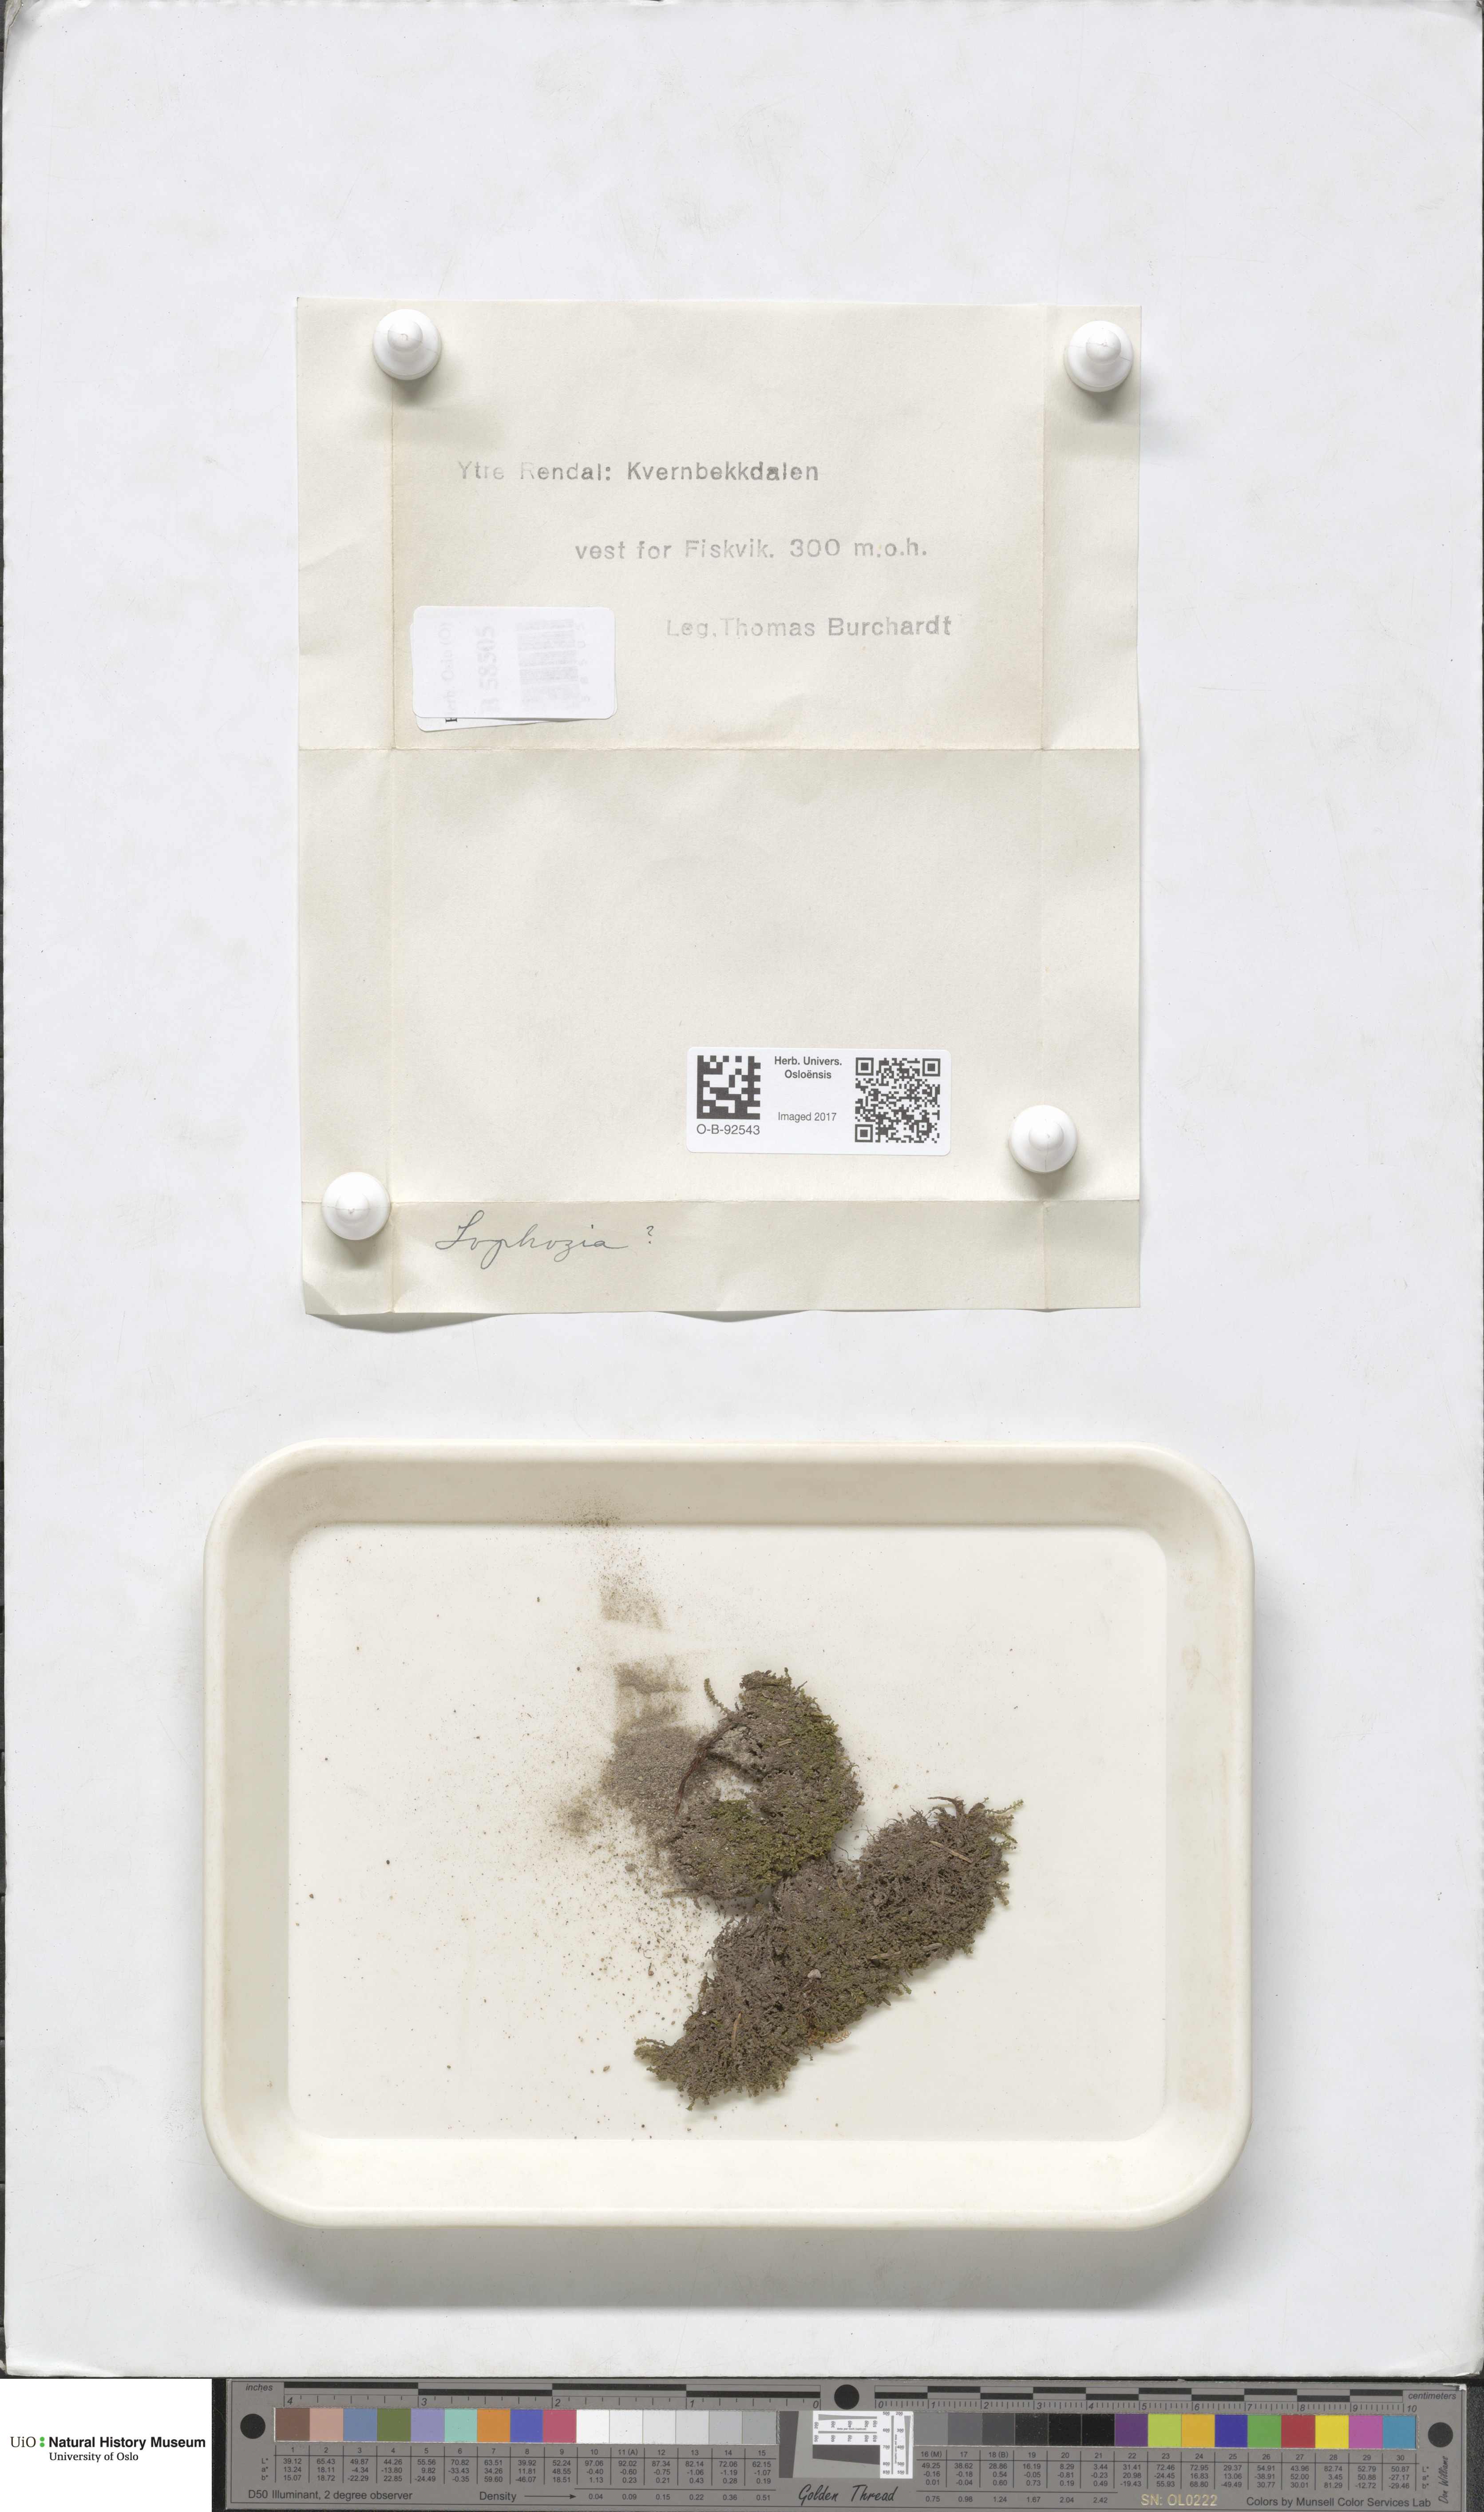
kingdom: Plantae
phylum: Marchantiophyta
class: Jungermanniopsida
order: Jungermanniales
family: Lophoziaceae
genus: Lophozia
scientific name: Lophozia
